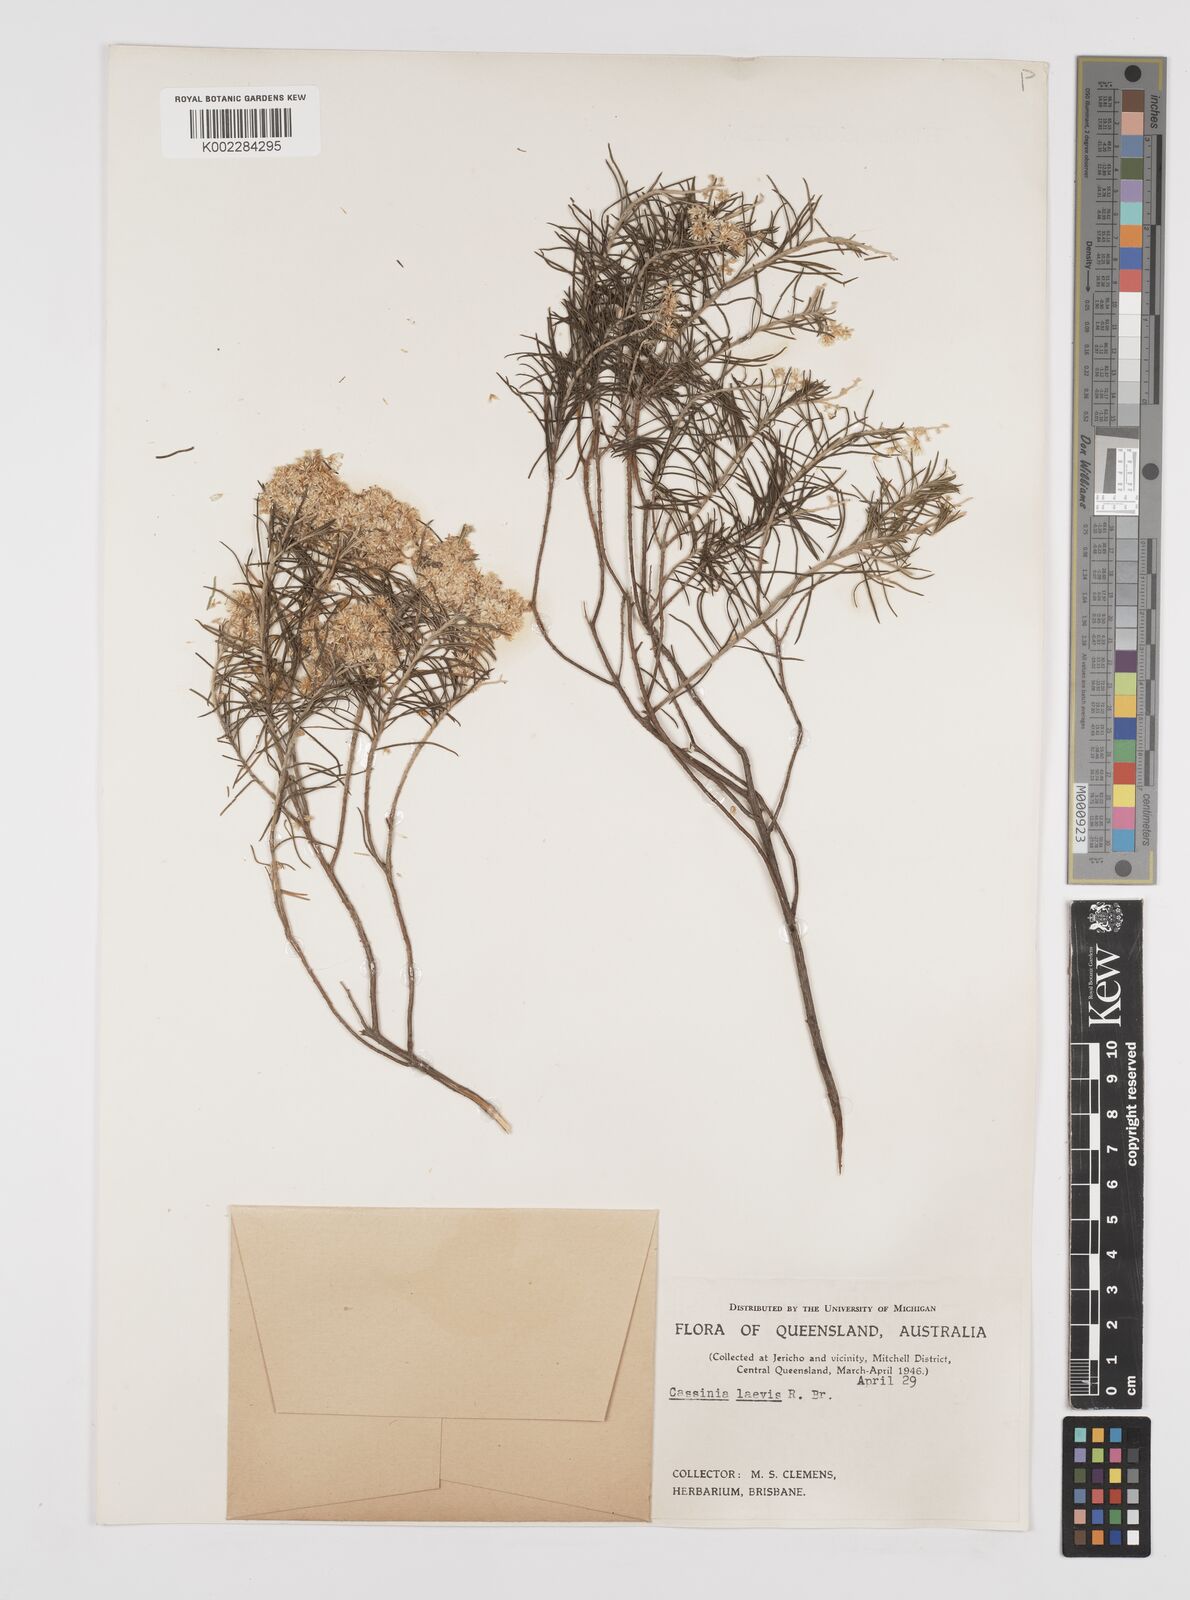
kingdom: Plantae
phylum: Tracheophyta
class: Magnoliopsida
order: Asterales
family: Asteraceae
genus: Cassinia
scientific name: Cassinia laevis
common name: Coughbush
